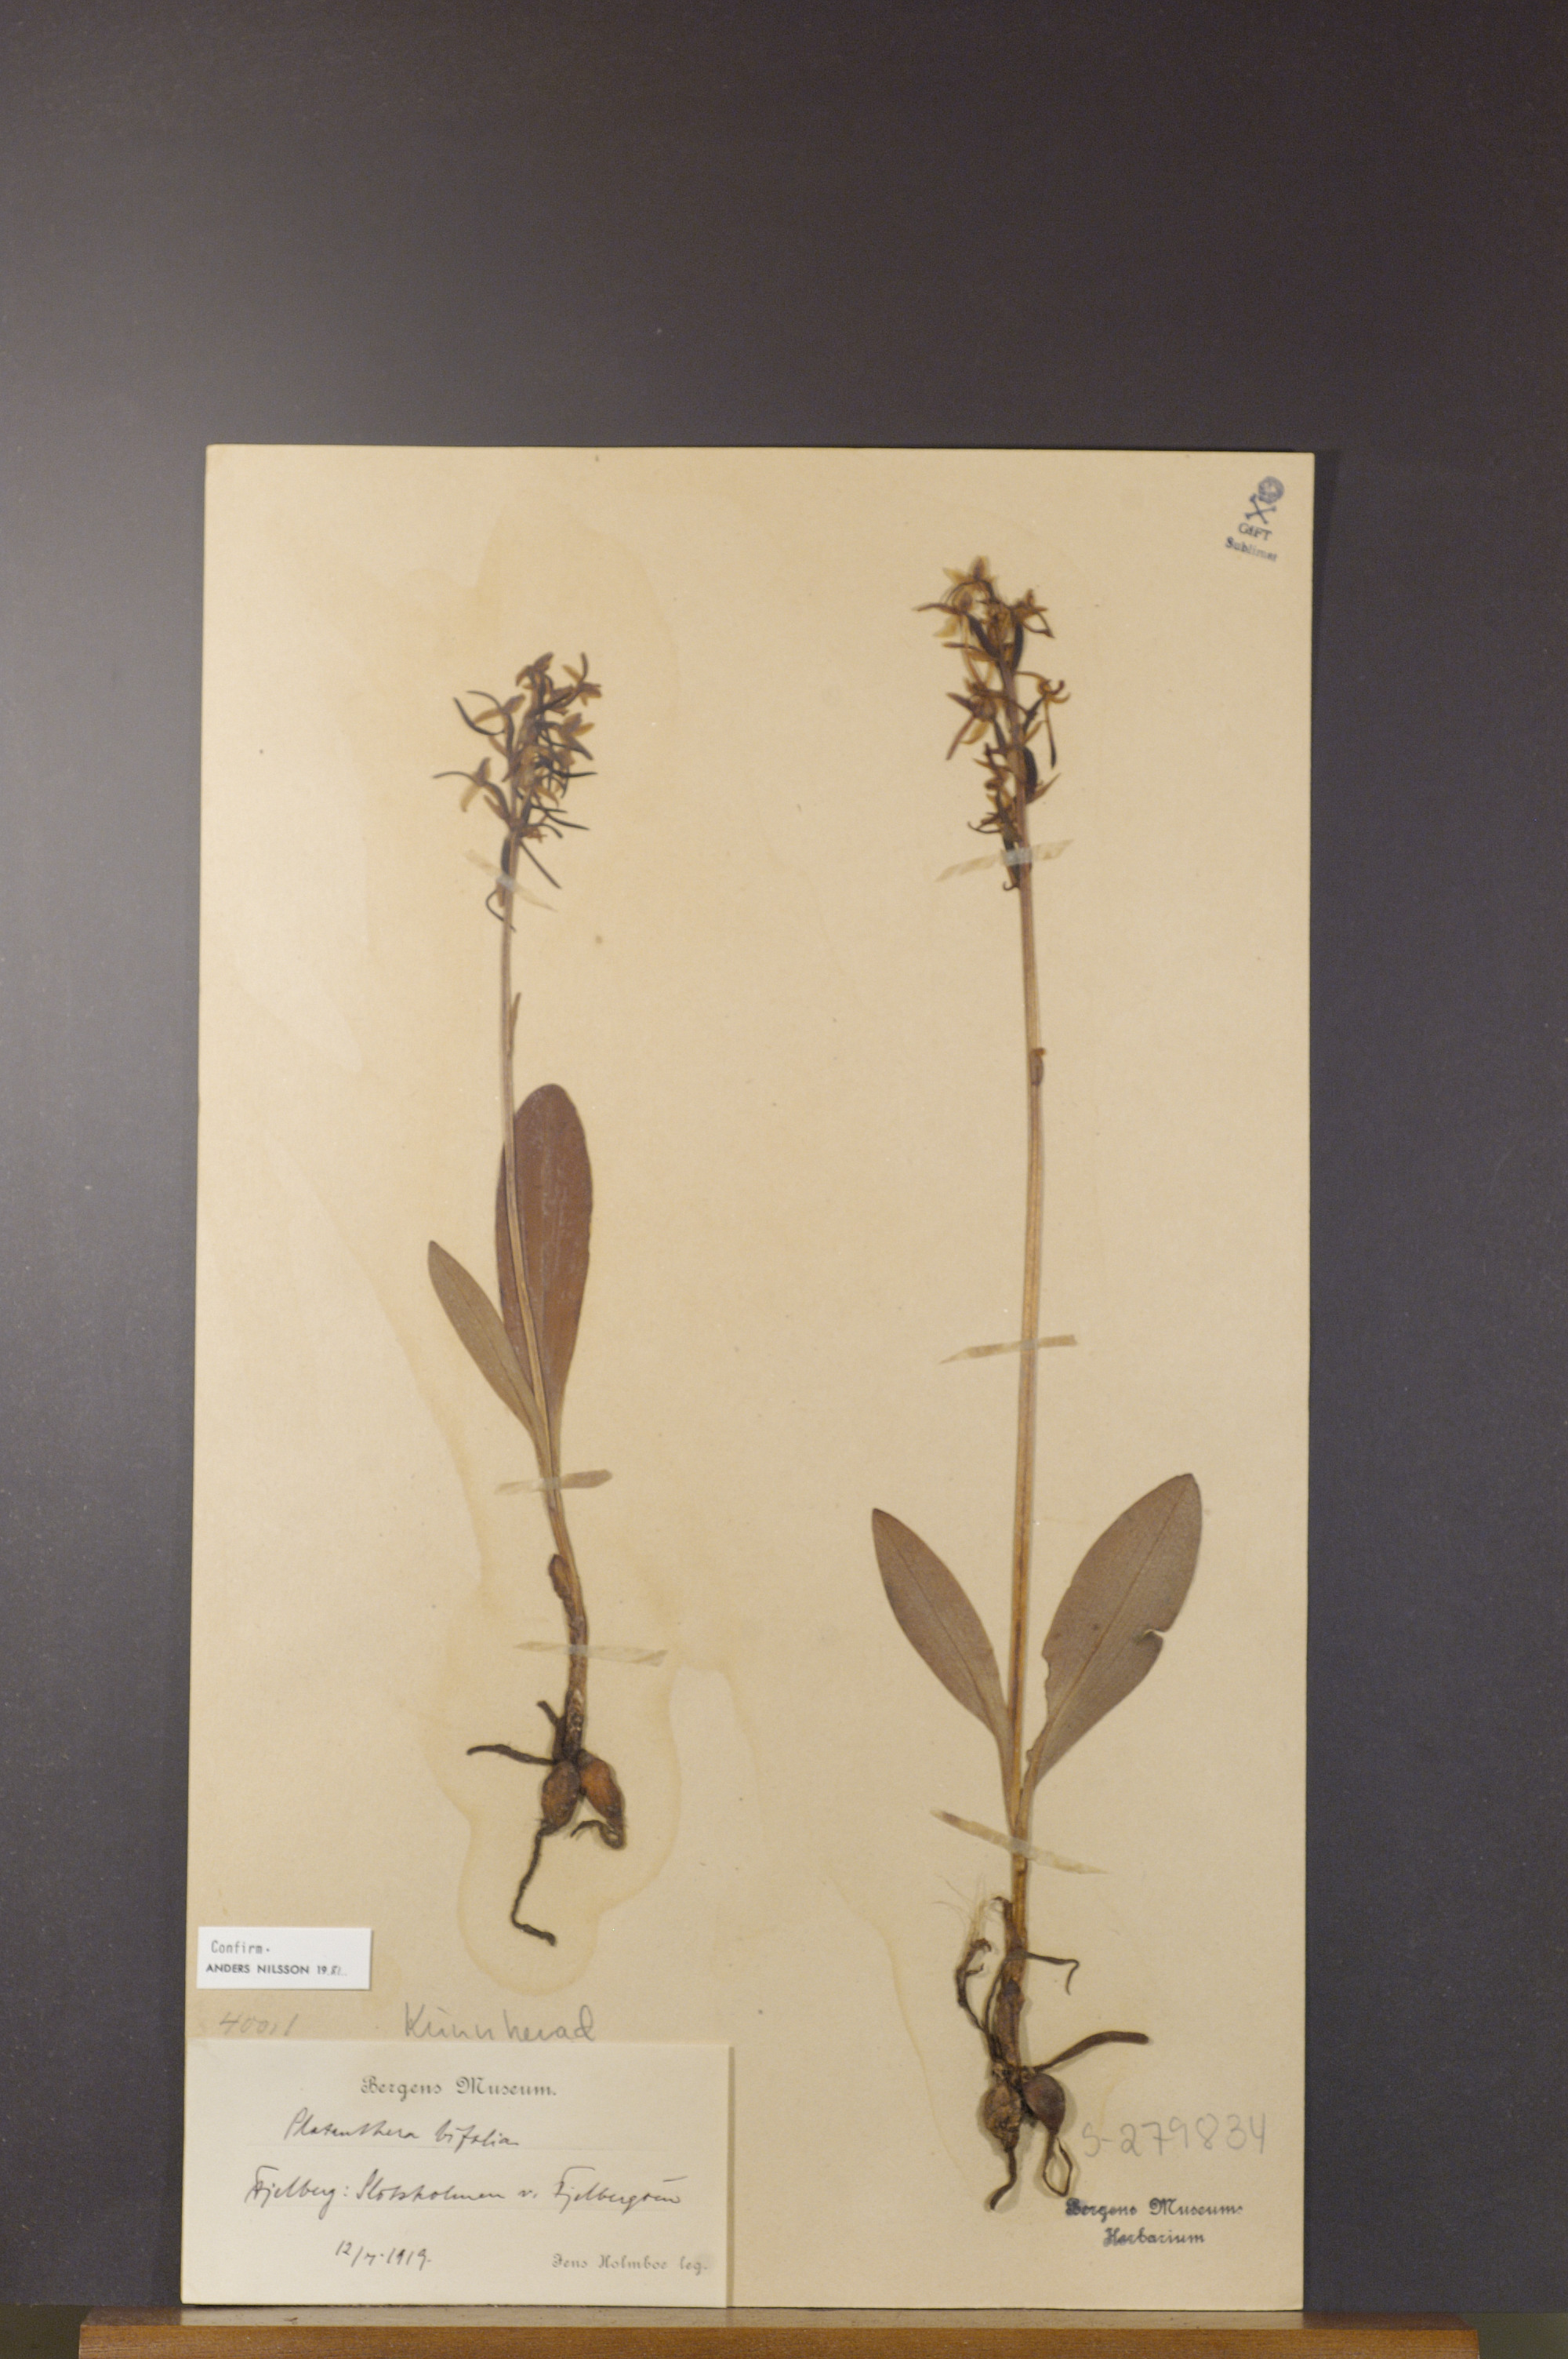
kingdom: Plantae
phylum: Tracheophyta
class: Liliopsida
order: Asparagales
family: Orchidaceae
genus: Platanthera
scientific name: Platanthera bifolia
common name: Lesser butterfly-orchid
